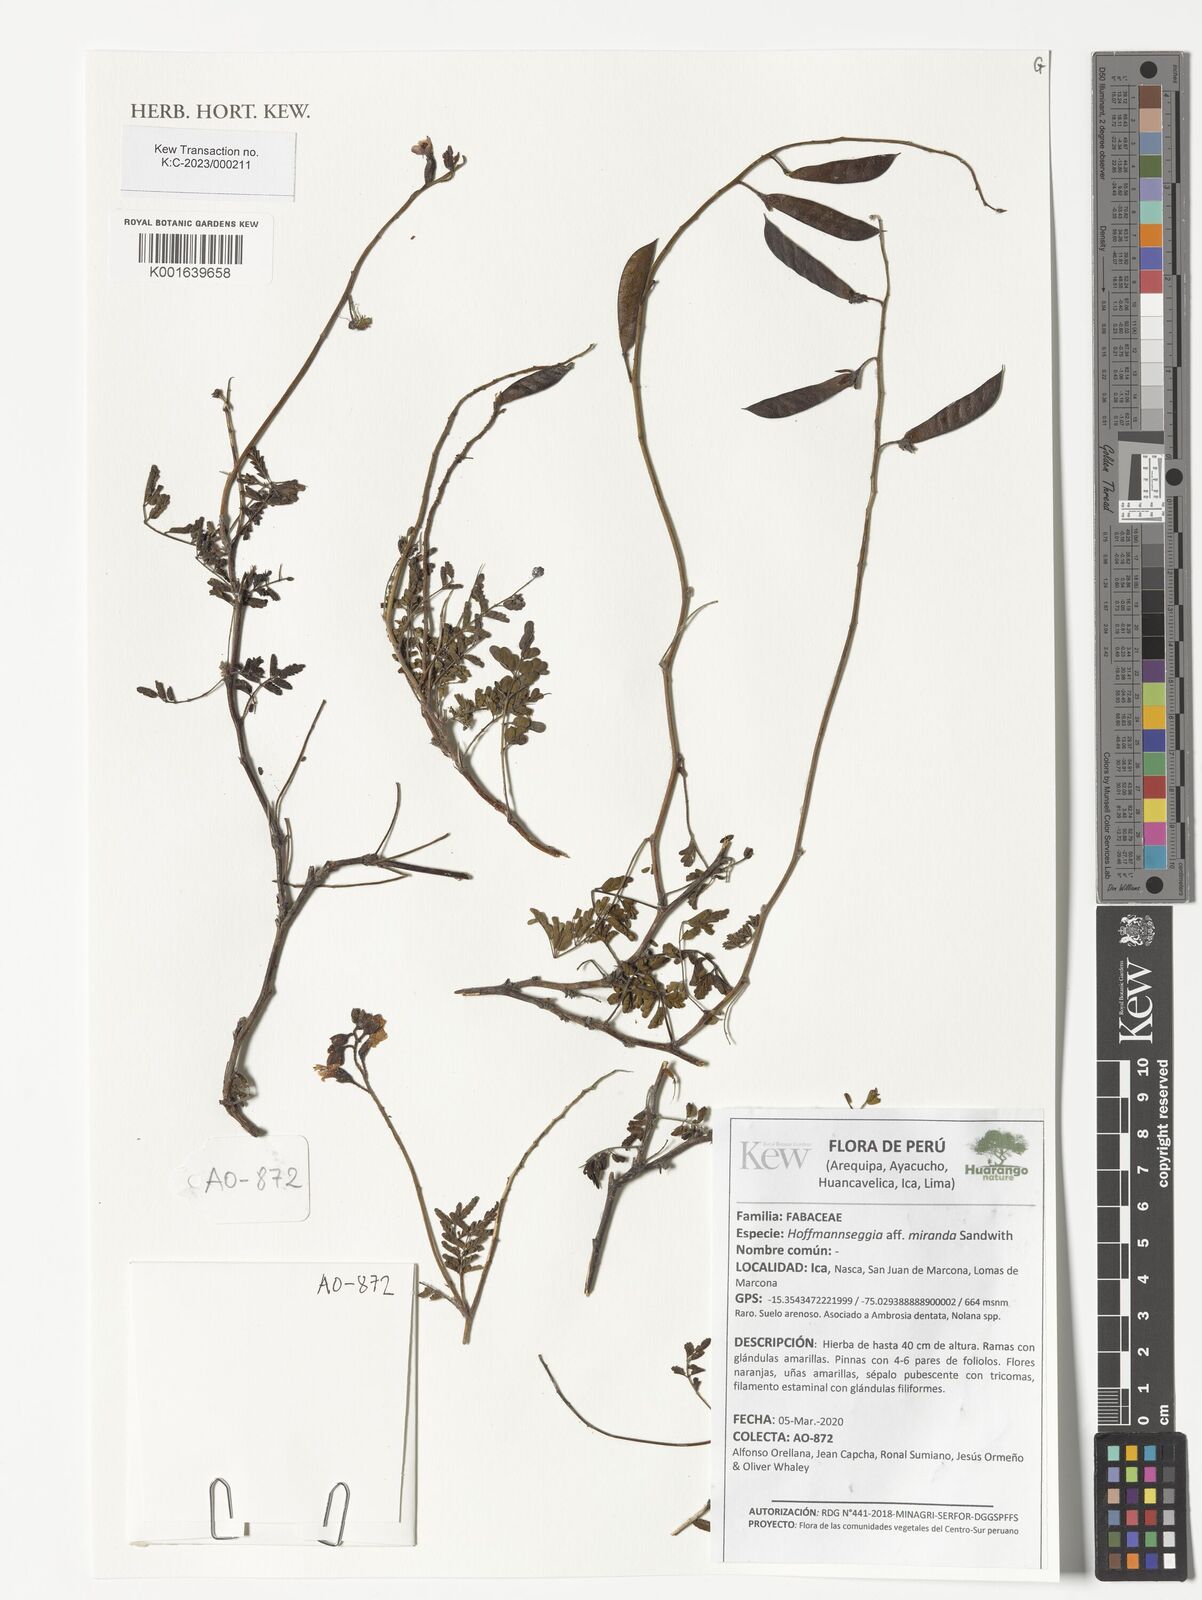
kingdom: Plantae
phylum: Tracheophyta
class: Magnoliopsida
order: Fabales
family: Fabaceae
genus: Hoffmannseggia
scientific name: Hoffmannseggia miranda
